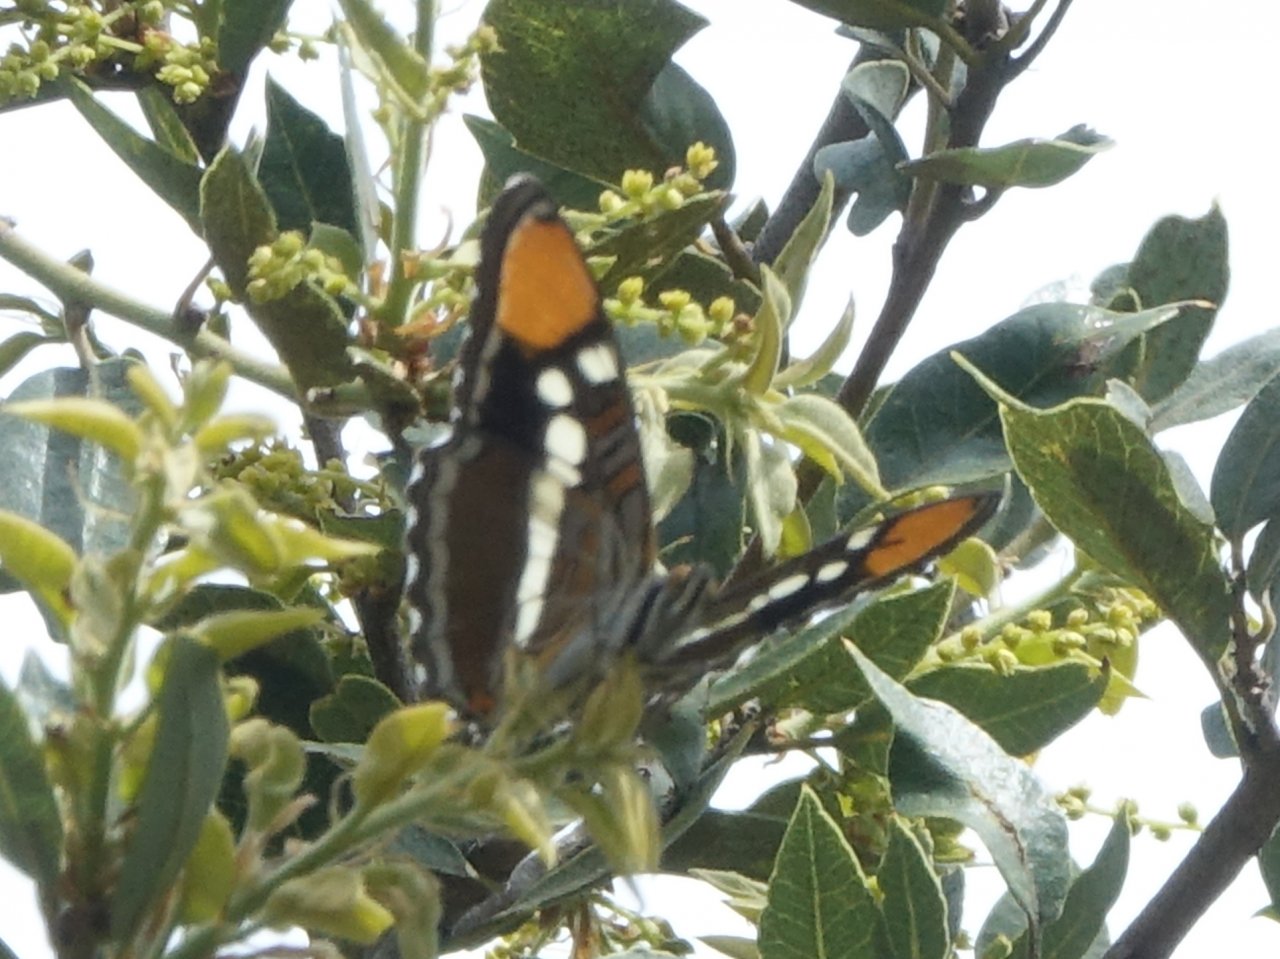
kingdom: Animalia
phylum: Arthropoda
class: Insecta
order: Lepidoptera
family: Nymphalidae
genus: Limenitis
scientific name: Limenitis bredowii
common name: California Sister
